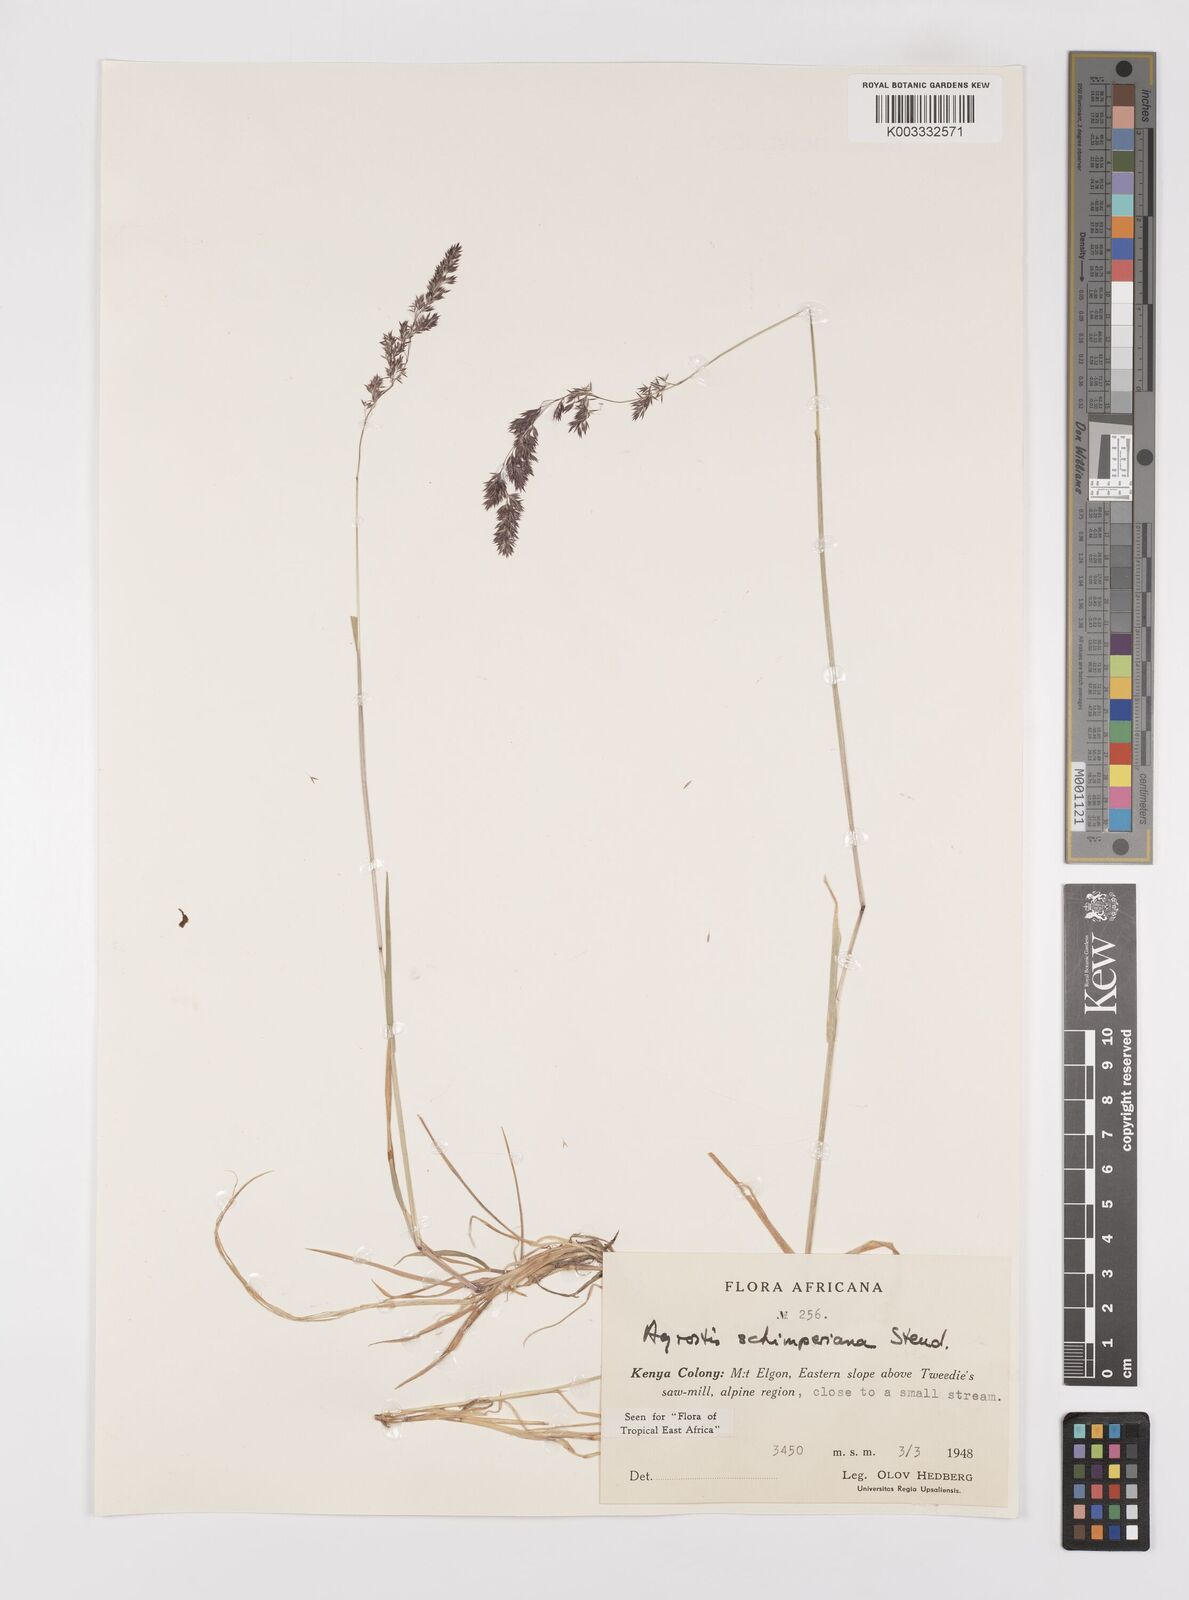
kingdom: Plantae
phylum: Tracheophyta
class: Liliopsida
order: Poales
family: Poaceae
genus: Polypogon
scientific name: Polypogon schimperianus
